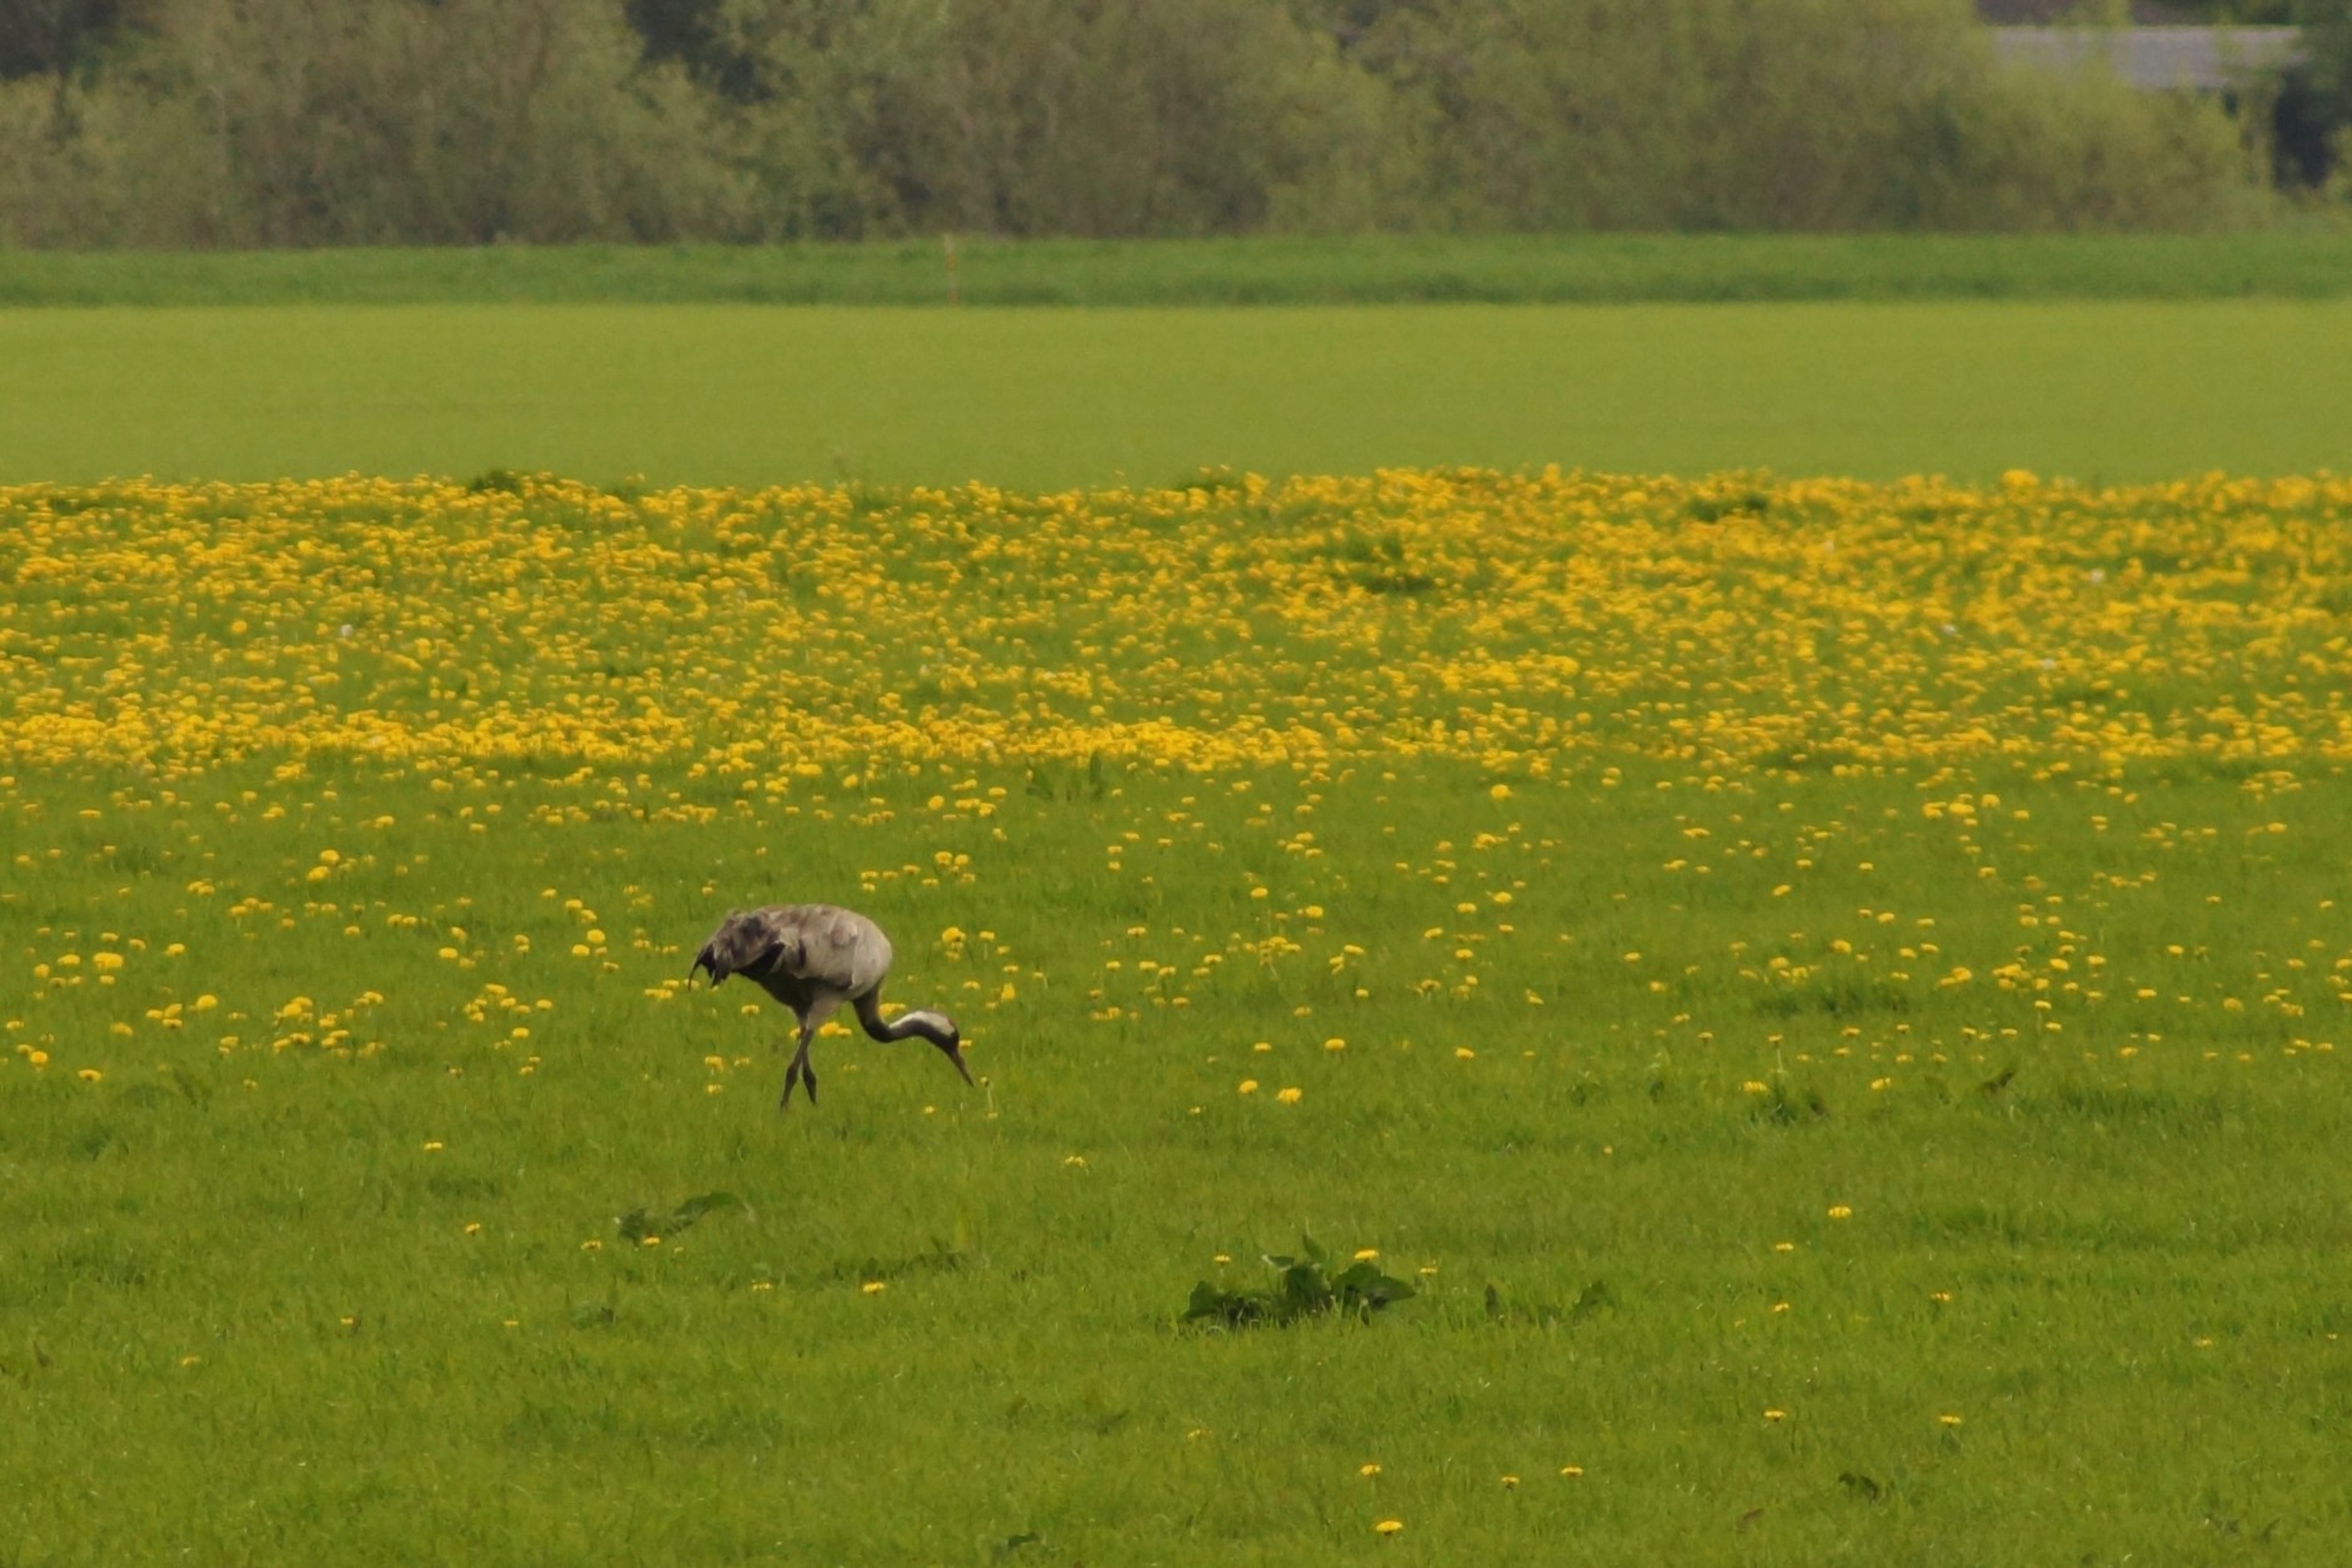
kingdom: Animalia
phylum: Chordata
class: Aves
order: Gruiformes
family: Gruidae
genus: Grus
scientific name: Grus grus
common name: Trane
